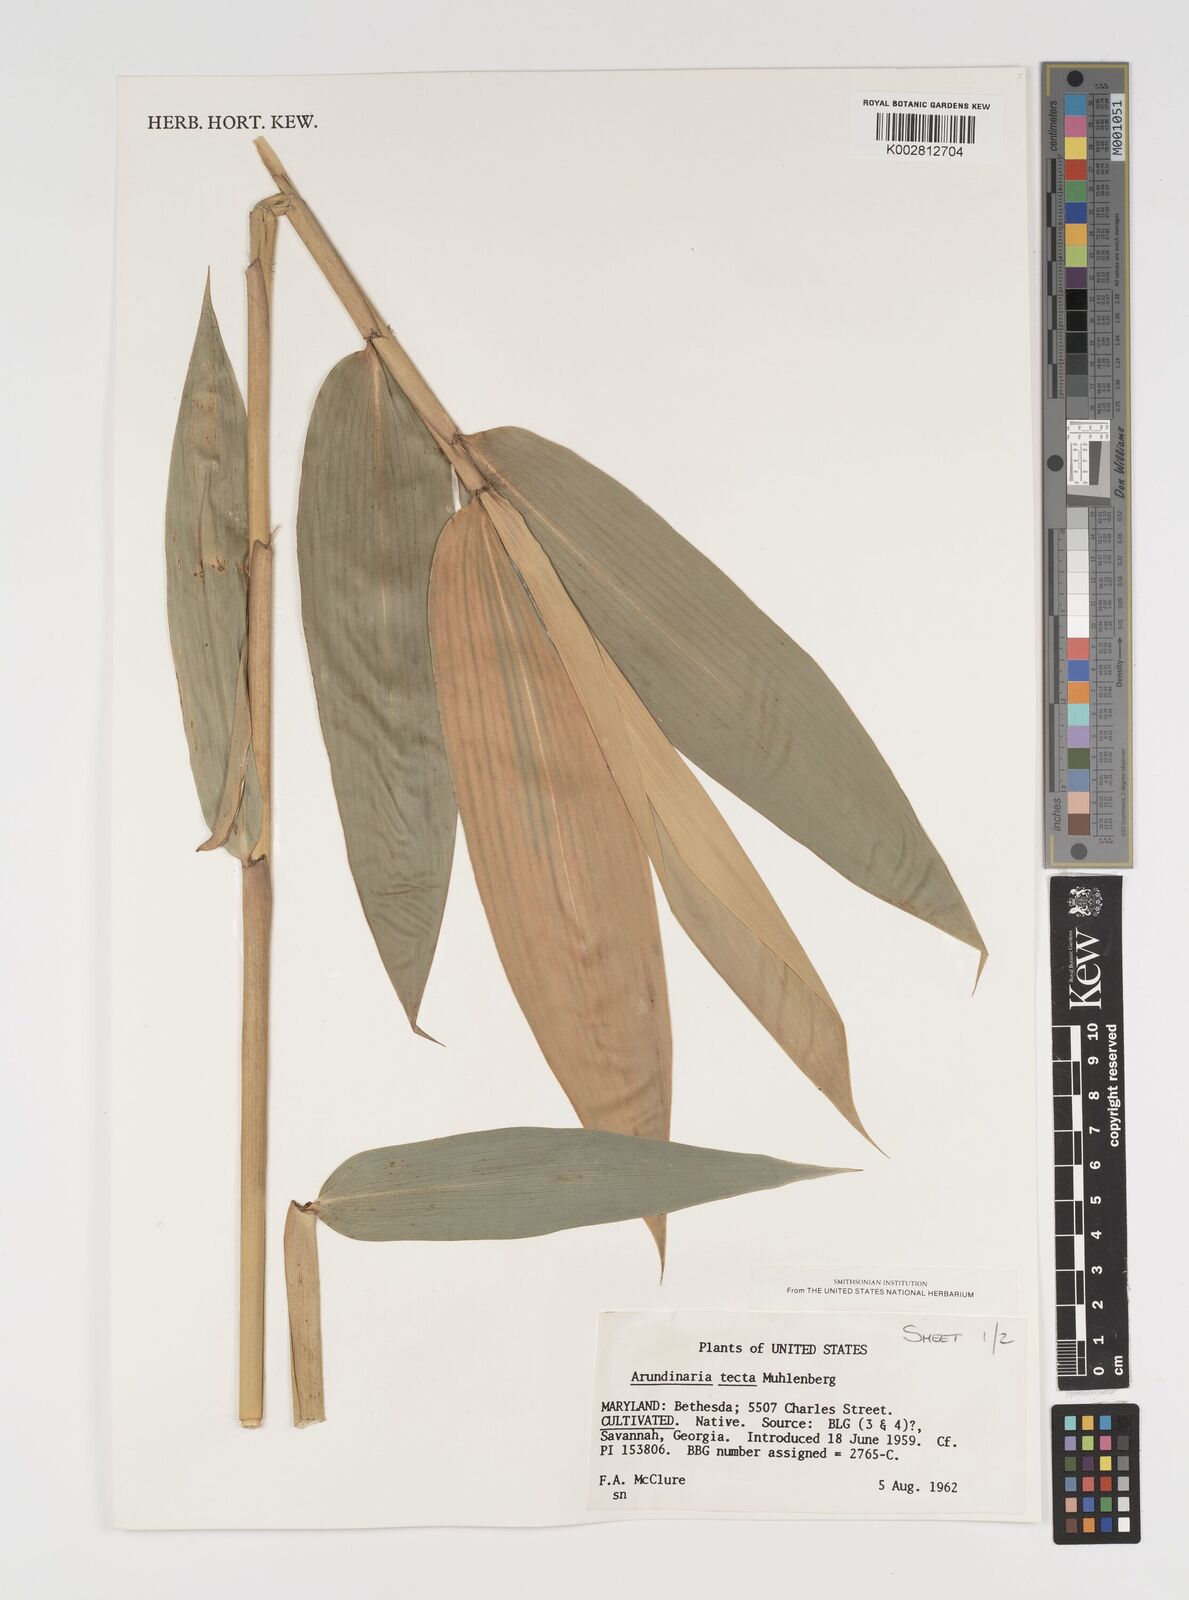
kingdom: Plantae
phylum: Tracheophyta
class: Liliopsida
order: Poales
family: Poaceae
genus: Arundinaria
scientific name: Arundinaria tecta
